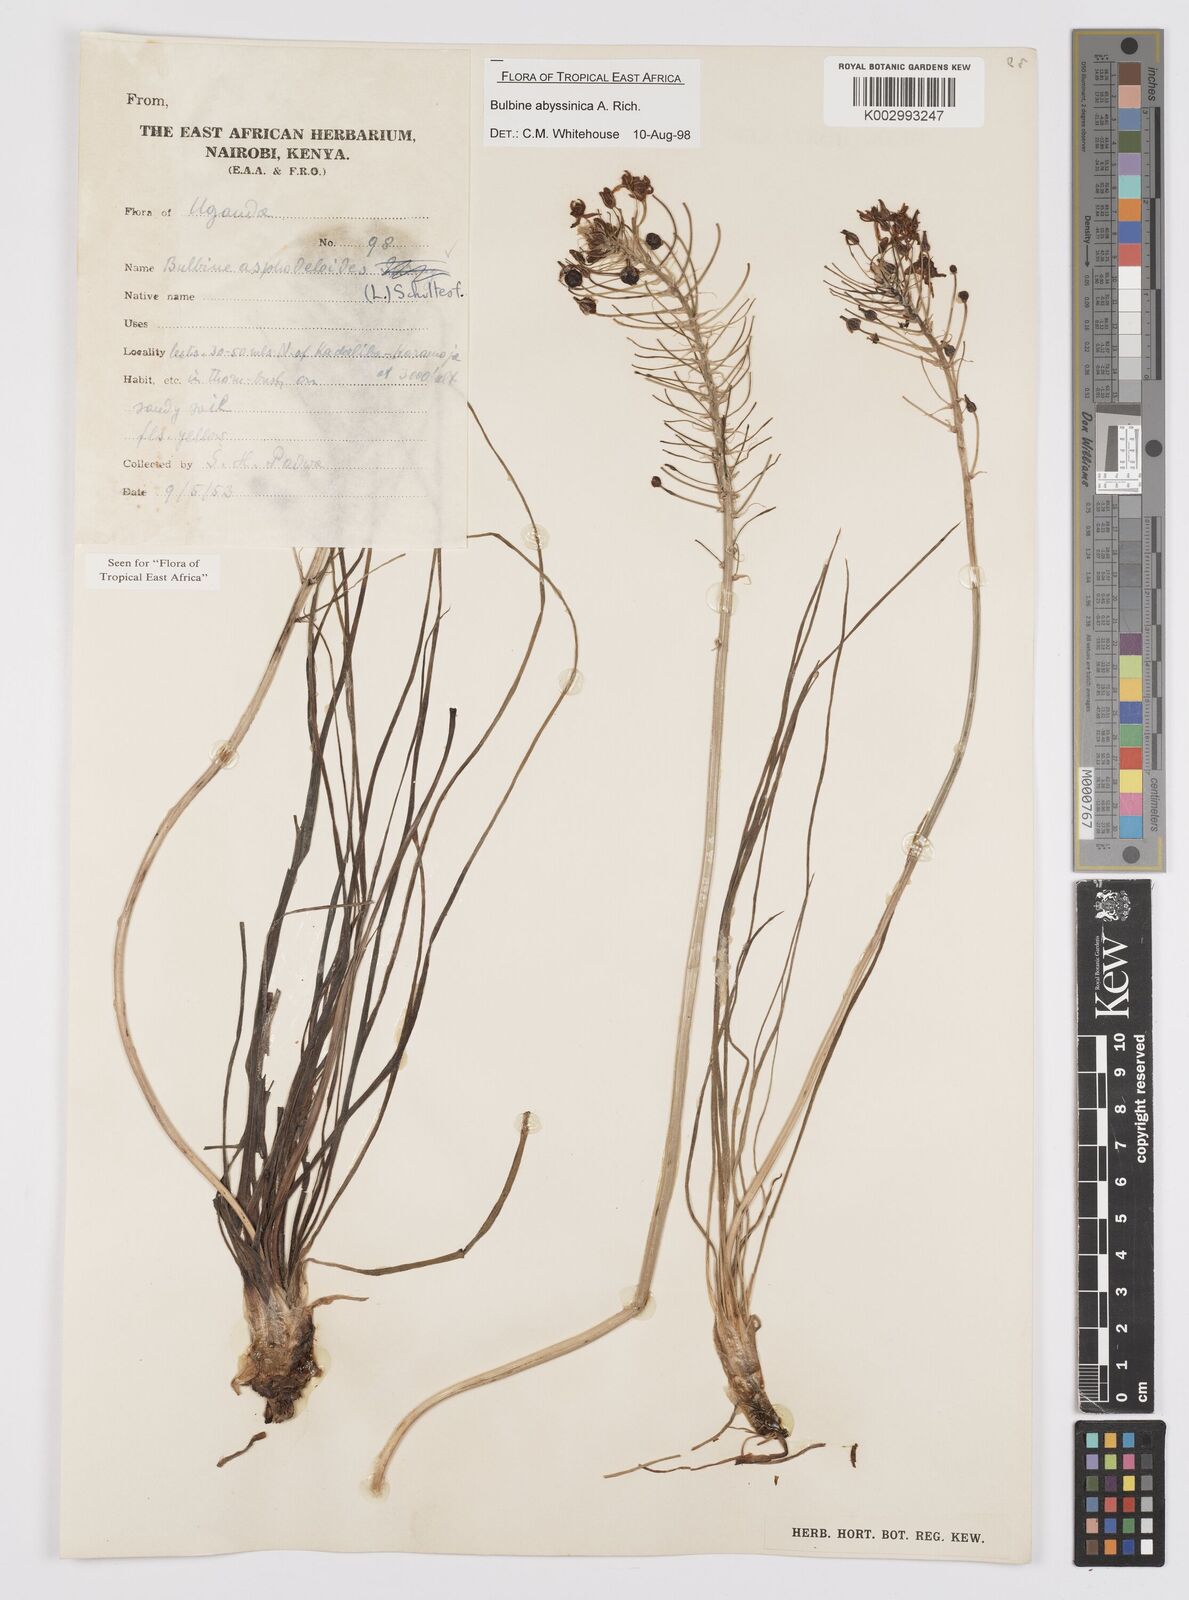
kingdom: Plantae
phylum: Tracheophyta
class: Liliopsida
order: Asparagales
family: Asphodelaceae
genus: Bulbine
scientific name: Bulbine abyssinica
